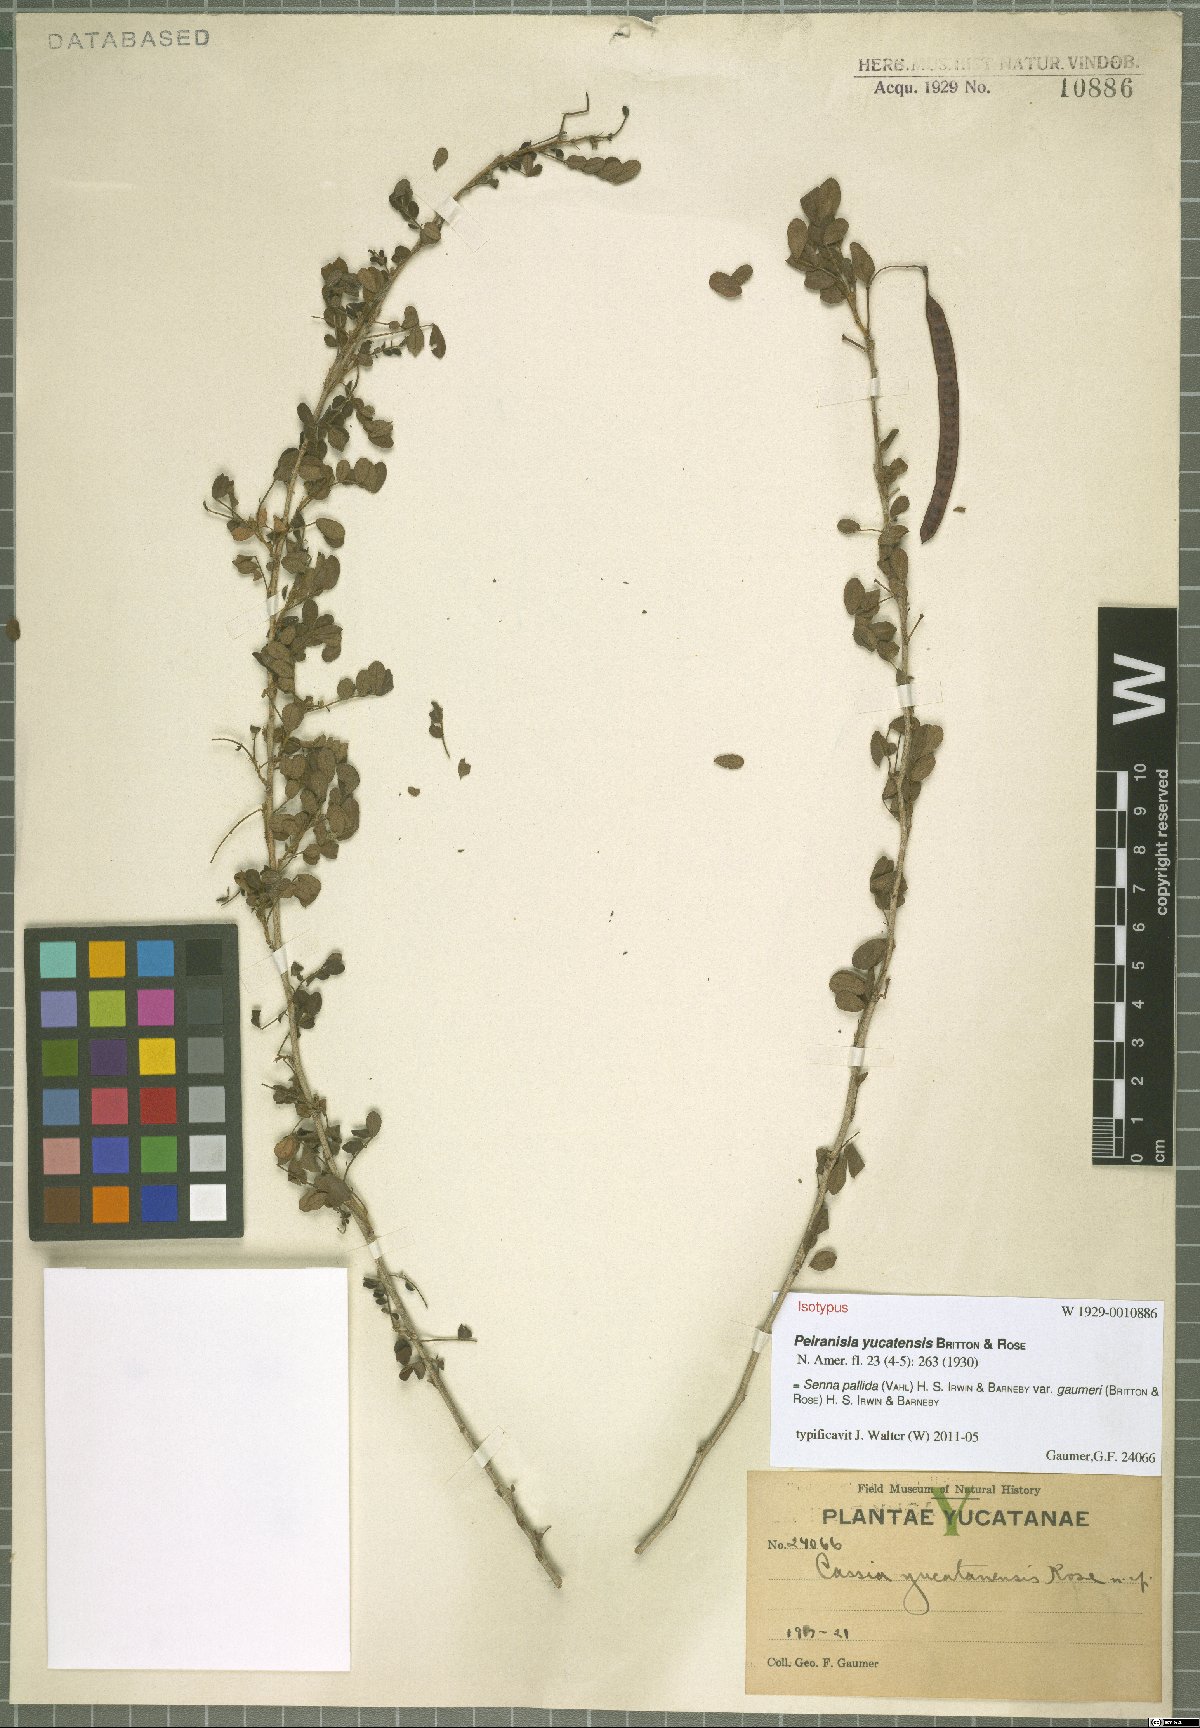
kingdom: Plantae
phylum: Tracheophyta
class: Magnoliopsida
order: Fabales
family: Fabaceae
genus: Senna
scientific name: Senna pallida
